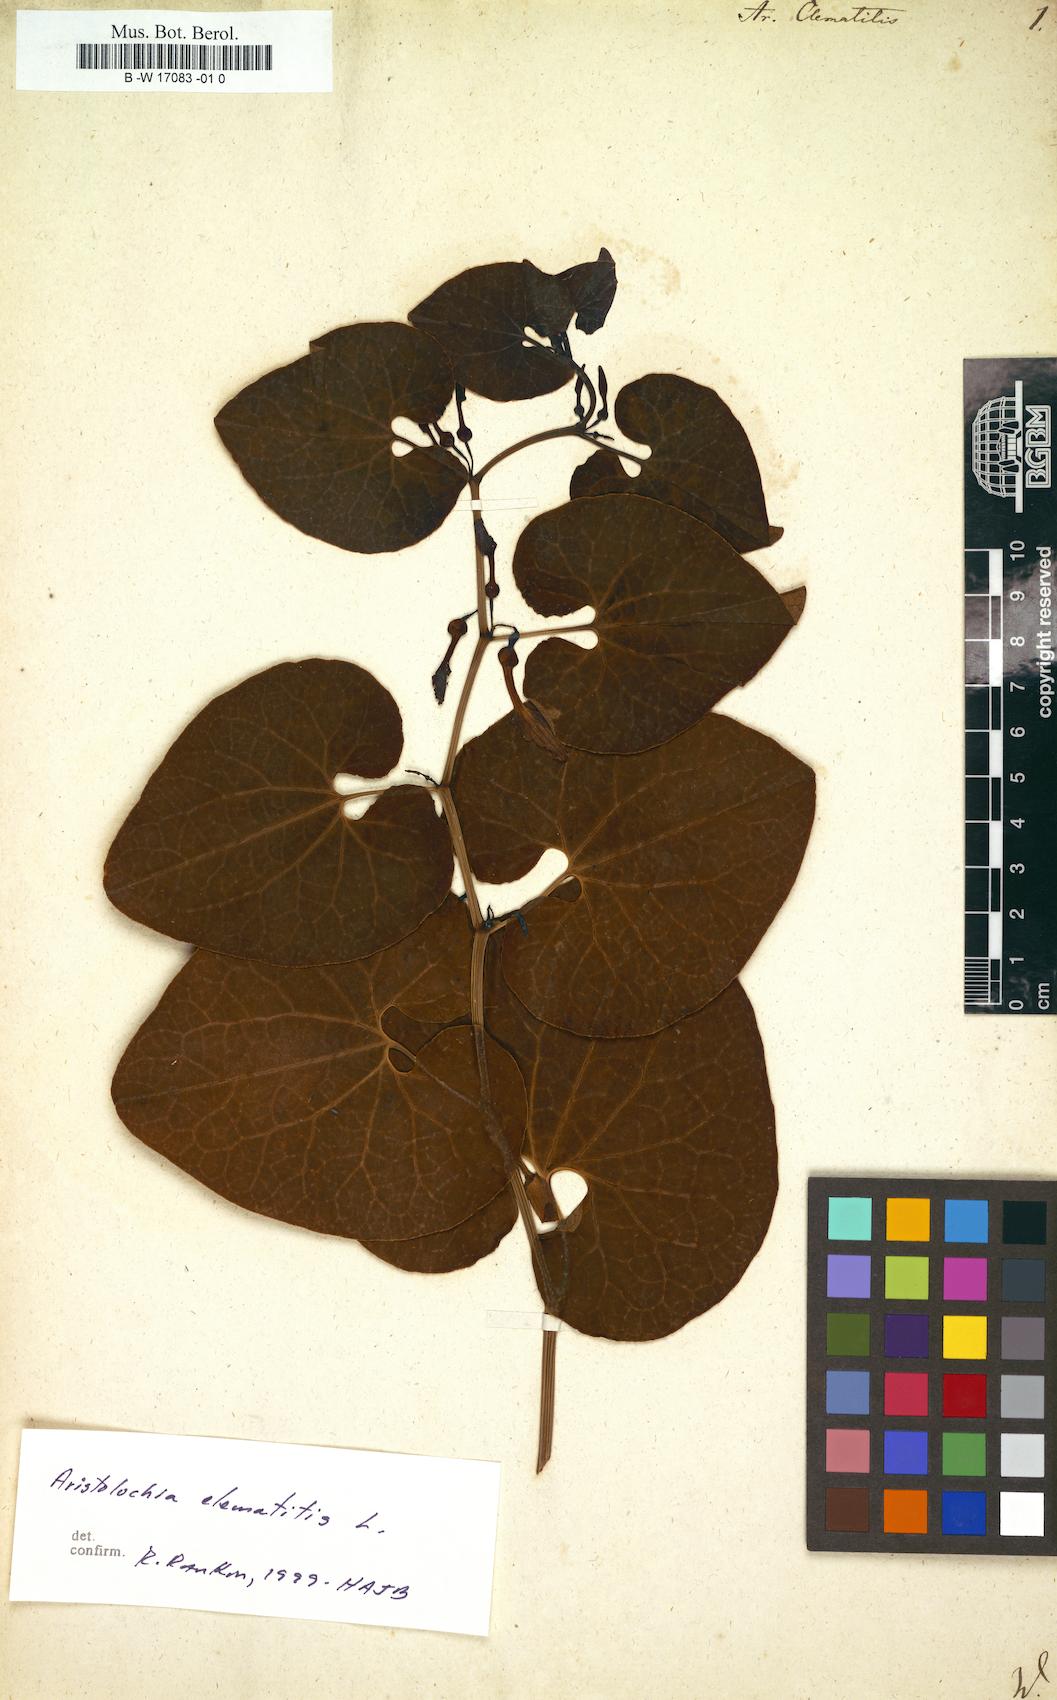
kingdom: Plantae
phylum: Tracheophyta
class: Magnoliopsida
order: Piperales
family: Aristolochiaceae
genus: Aristolochia
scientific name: Aristolochia clematitis
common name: Birthwort
